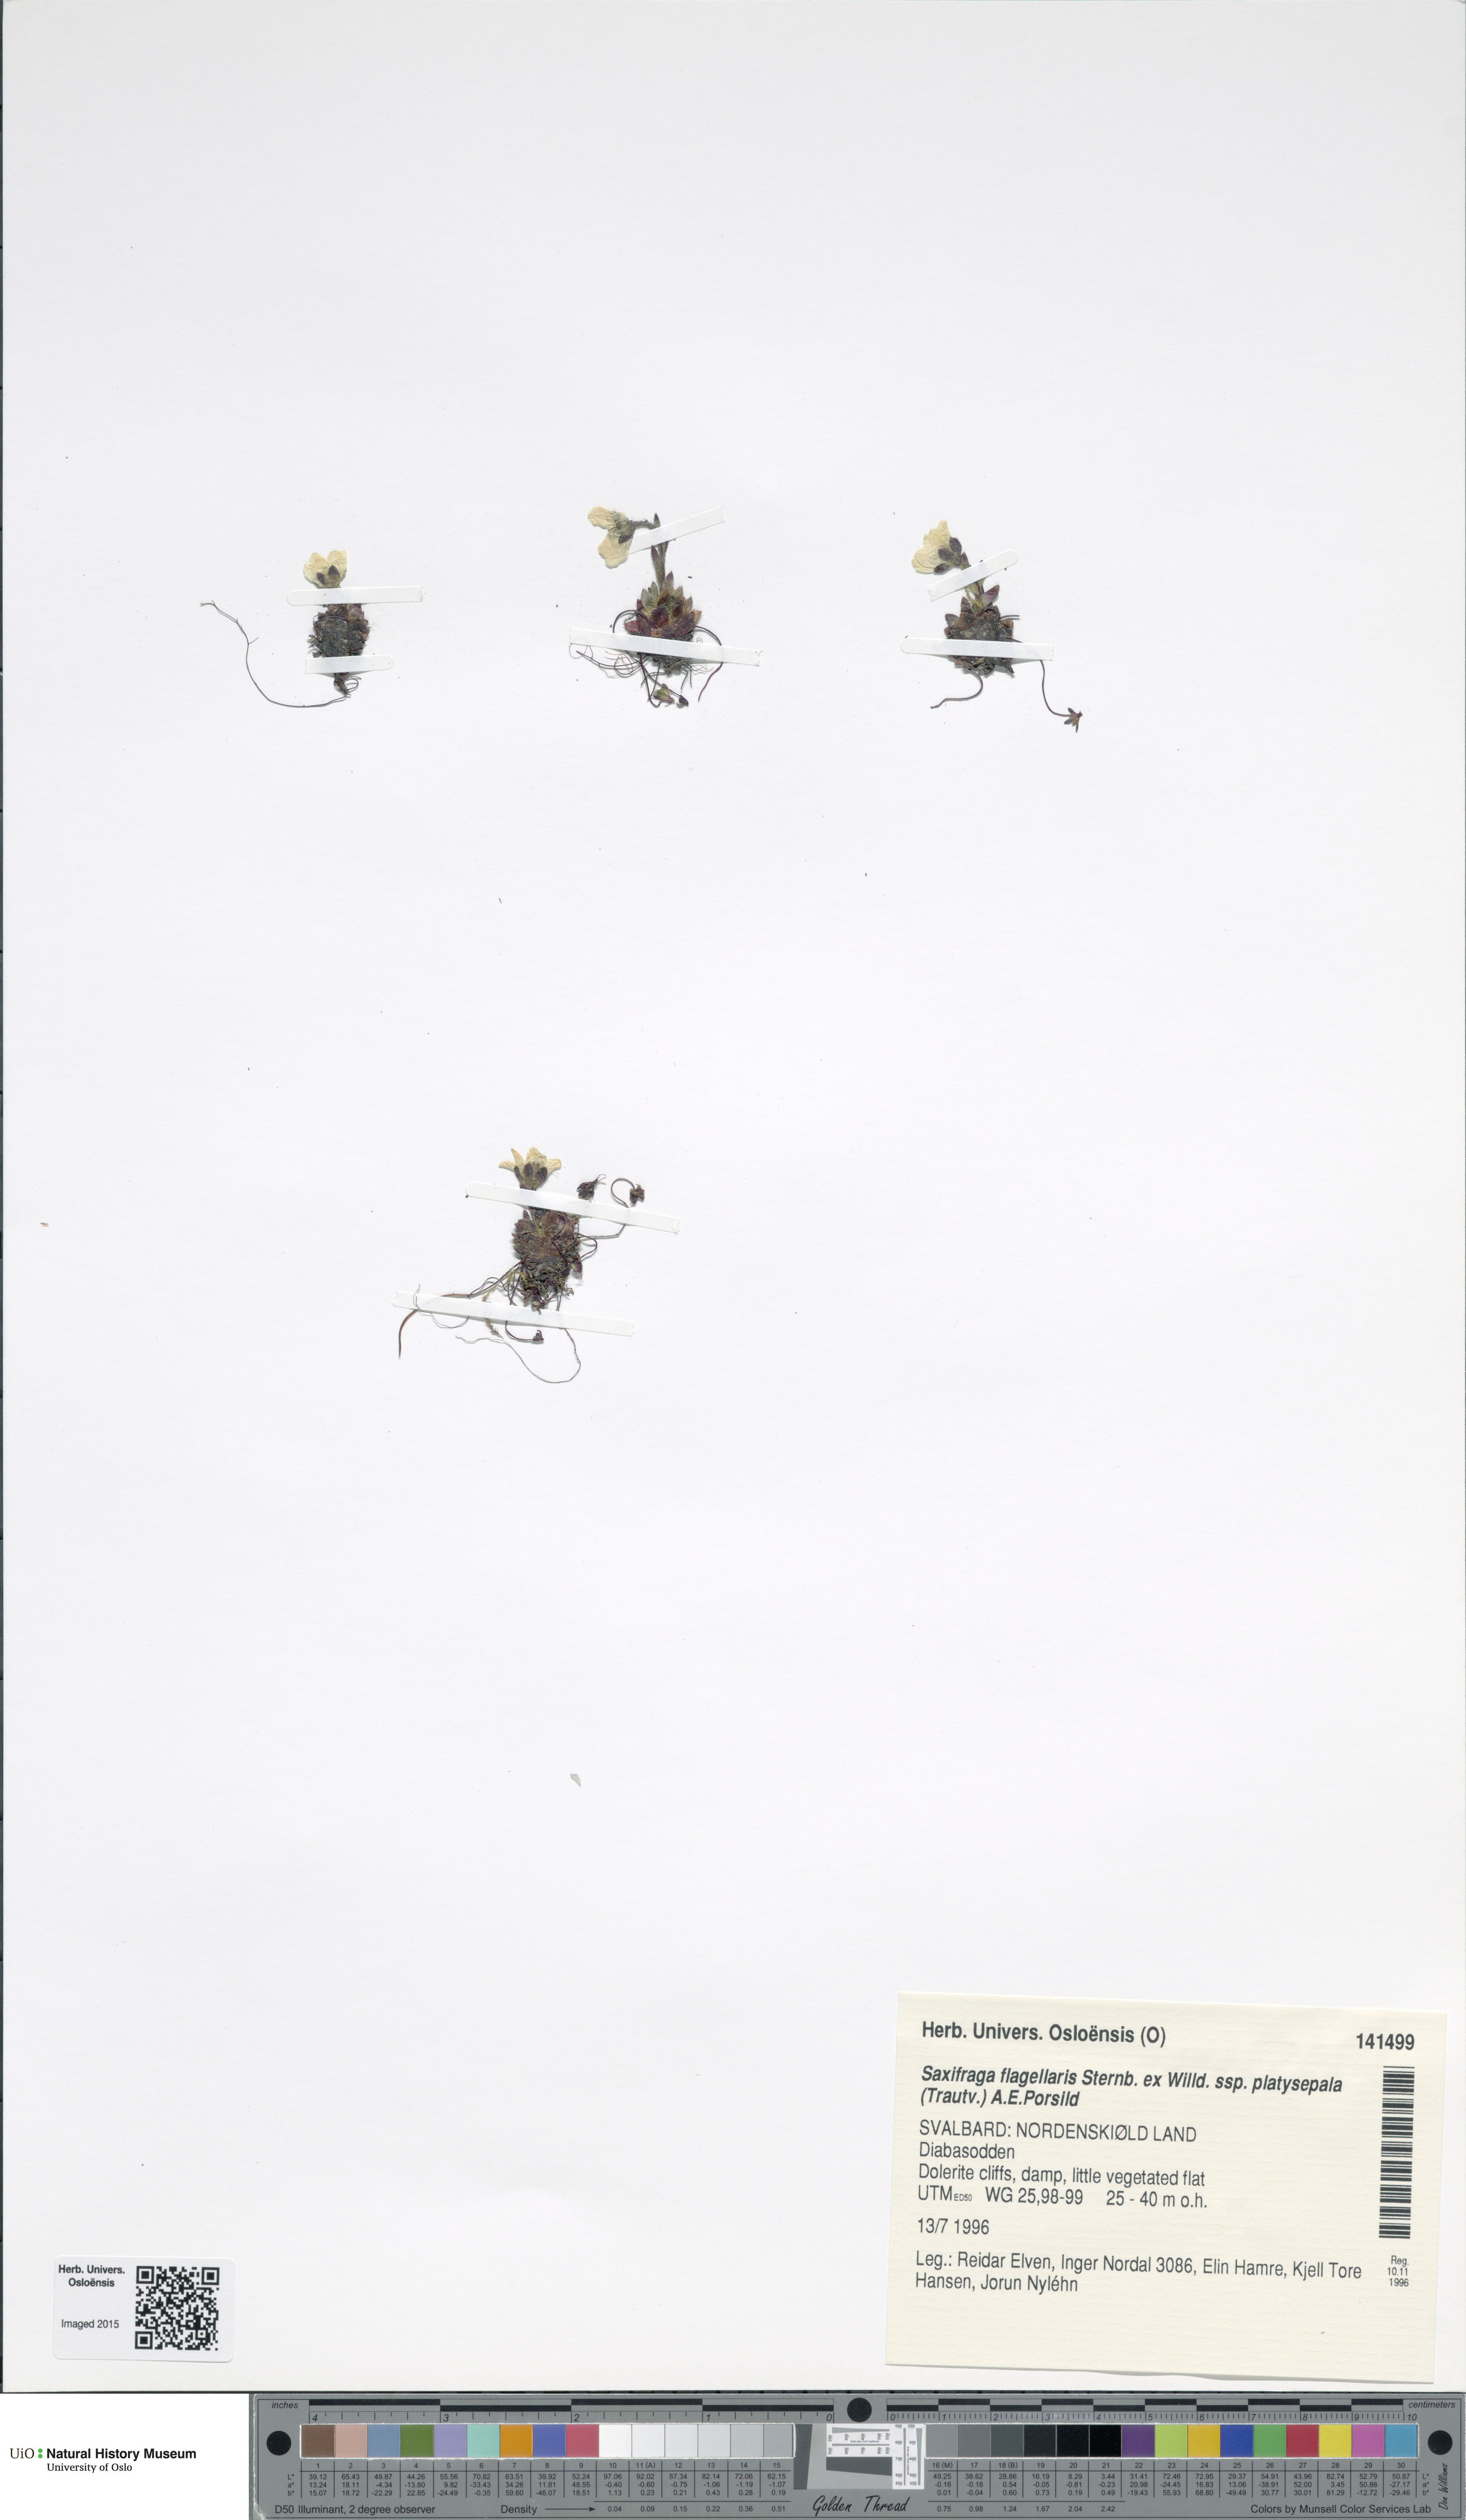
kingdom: Plantae
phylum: Tracheophyta
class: Magnoliopsida
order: Saxifragales
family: Saxifragaceae
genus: Saxifraga
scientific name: Saxifraga platysepala
